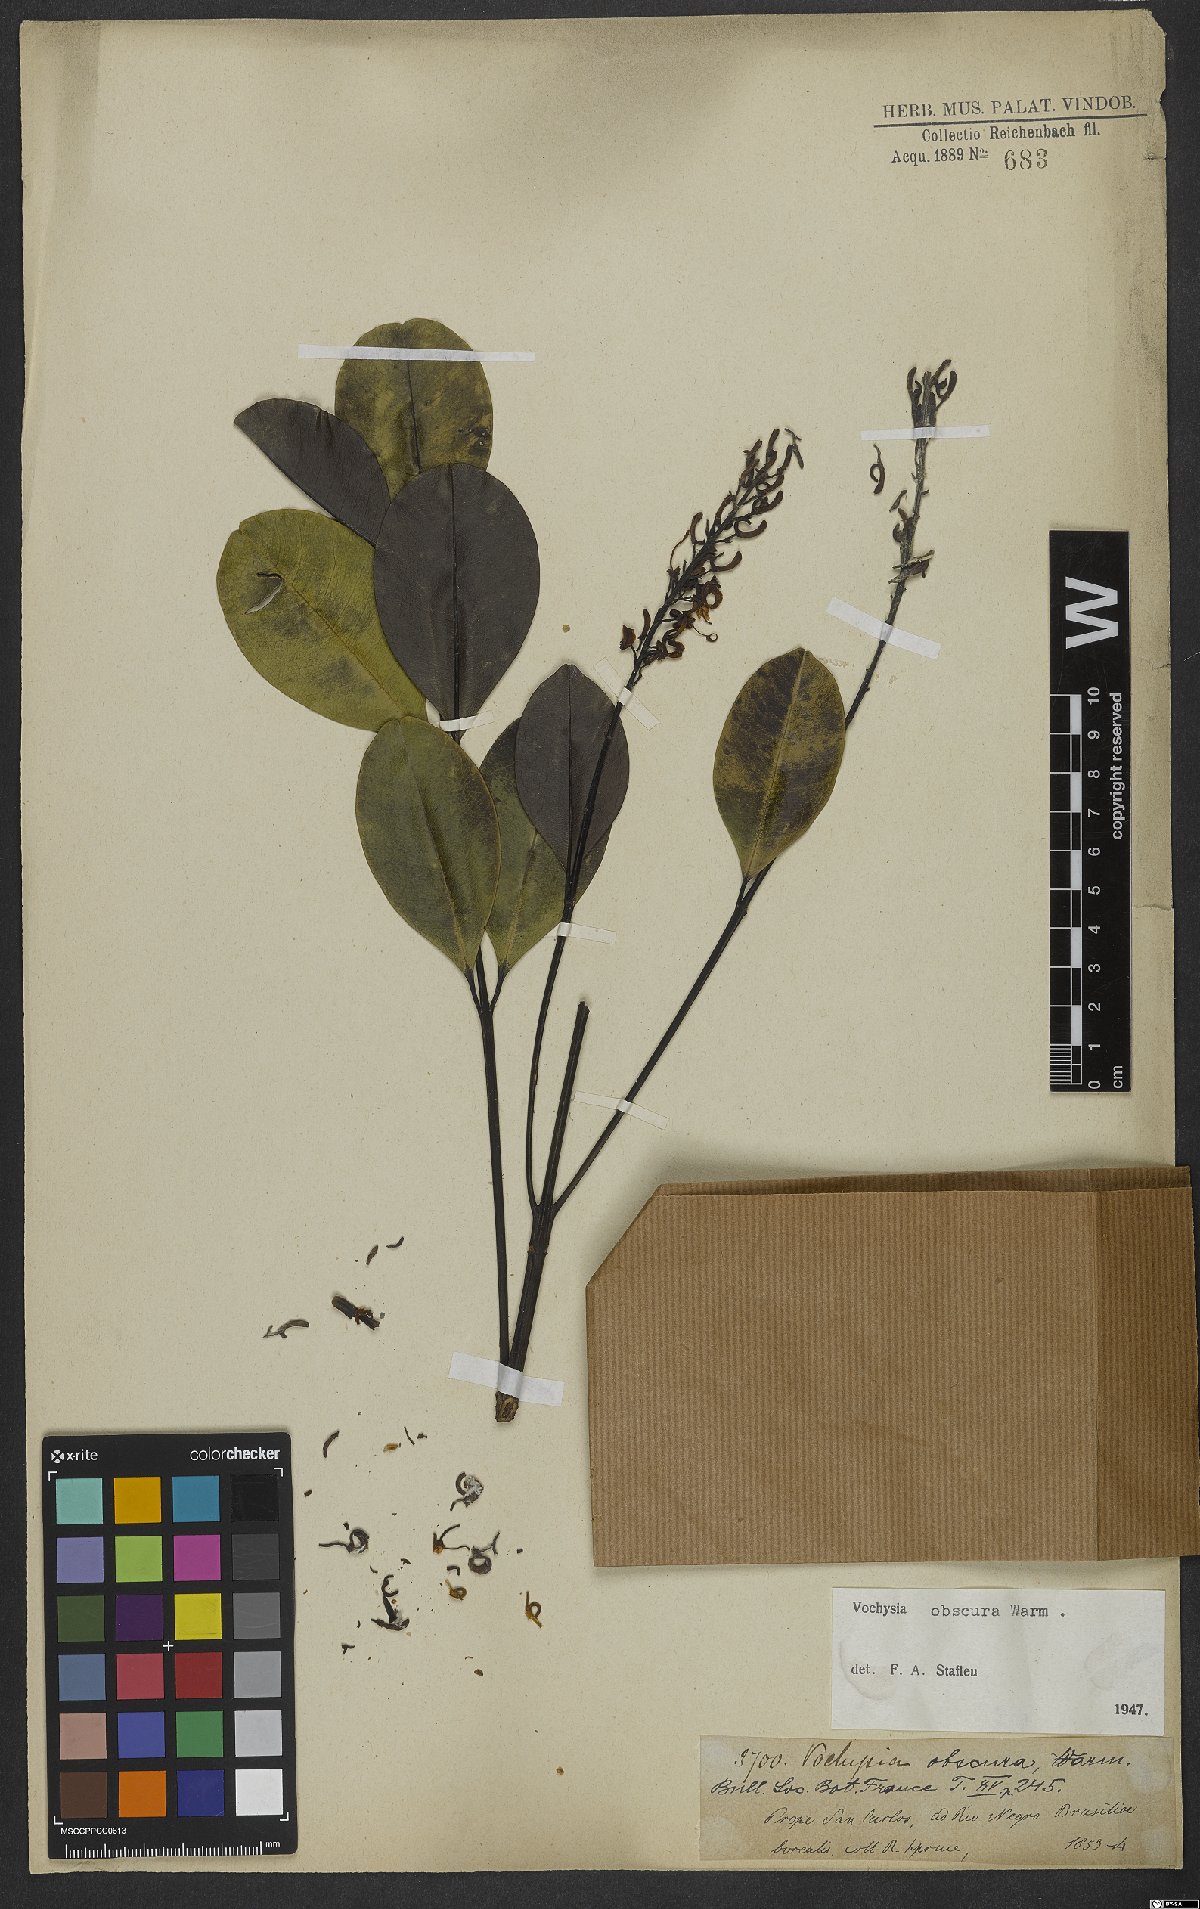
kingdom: Plantae
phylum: Tracheophyta
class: Magnoliopsida
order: Myrtales
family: Vochysiaceae
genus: Vochysia
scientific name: Vochysia obscura
